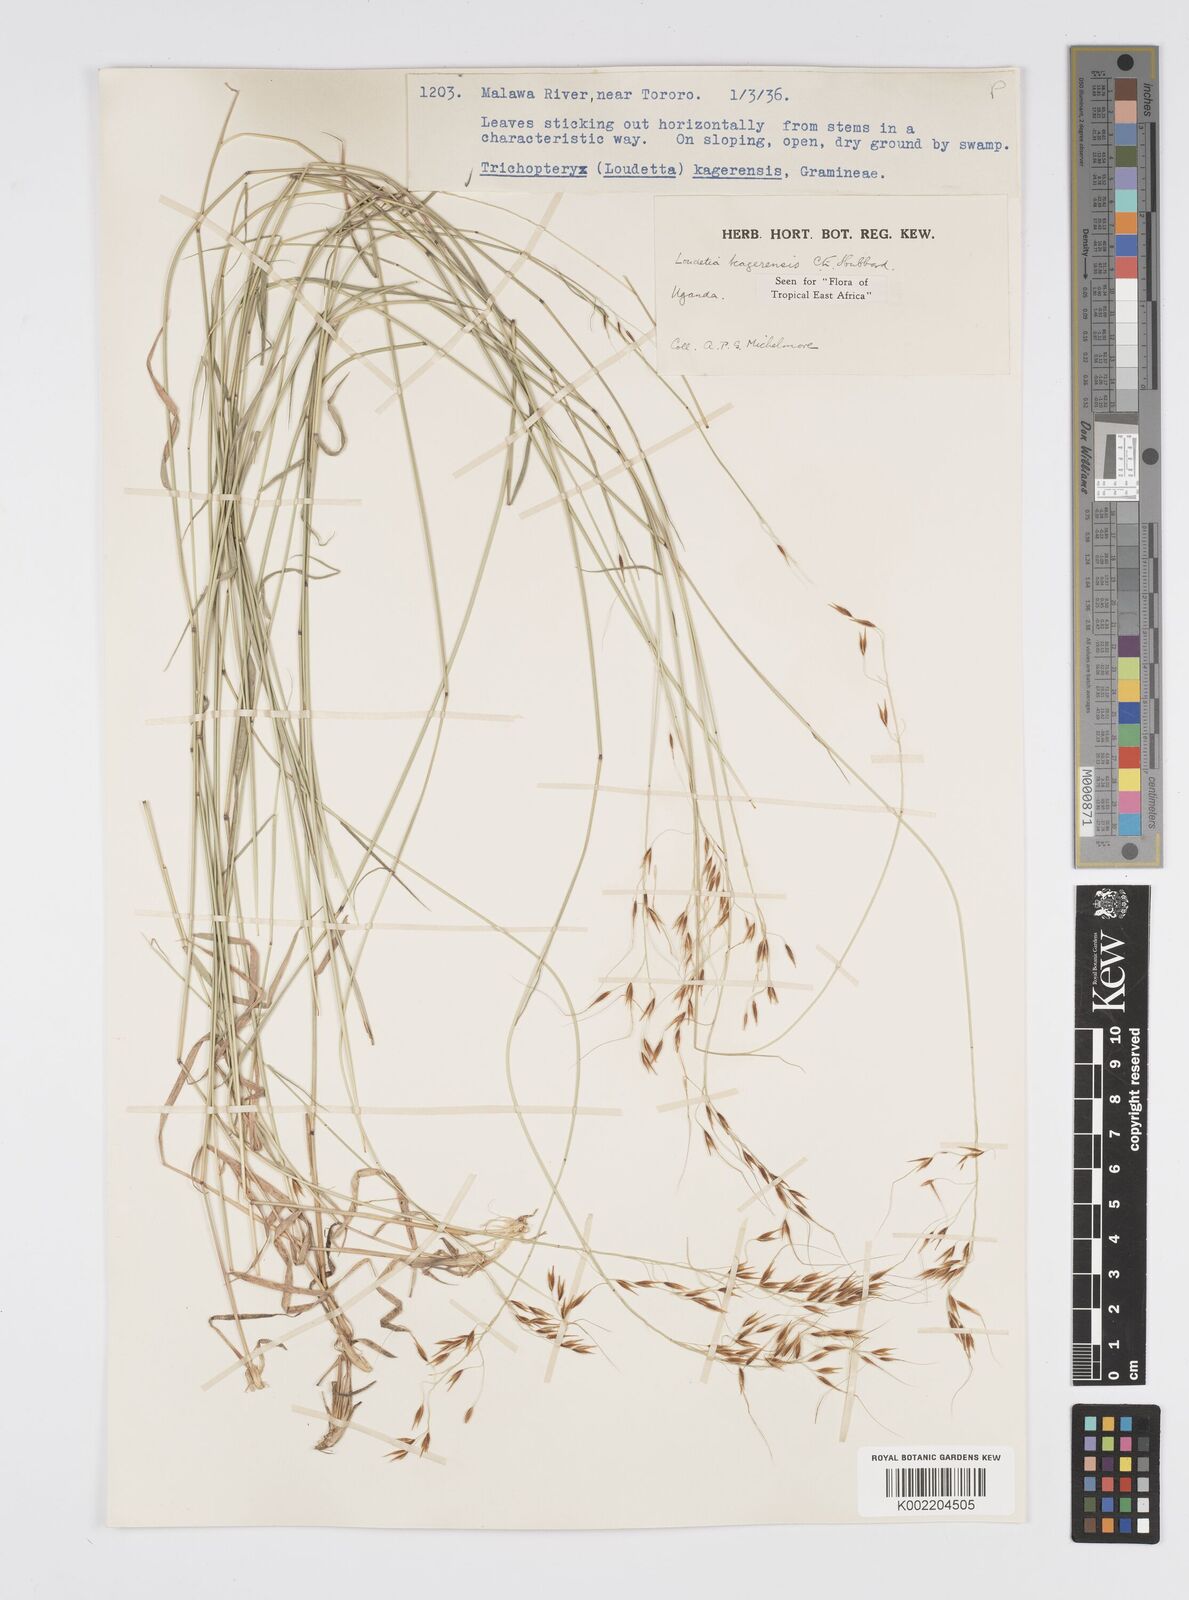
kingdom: Plantae
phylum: Tracheophyta
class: Liliopsida
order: Poales
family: Poaceae
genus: Loudetia
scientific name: Loudetia kagerensis
